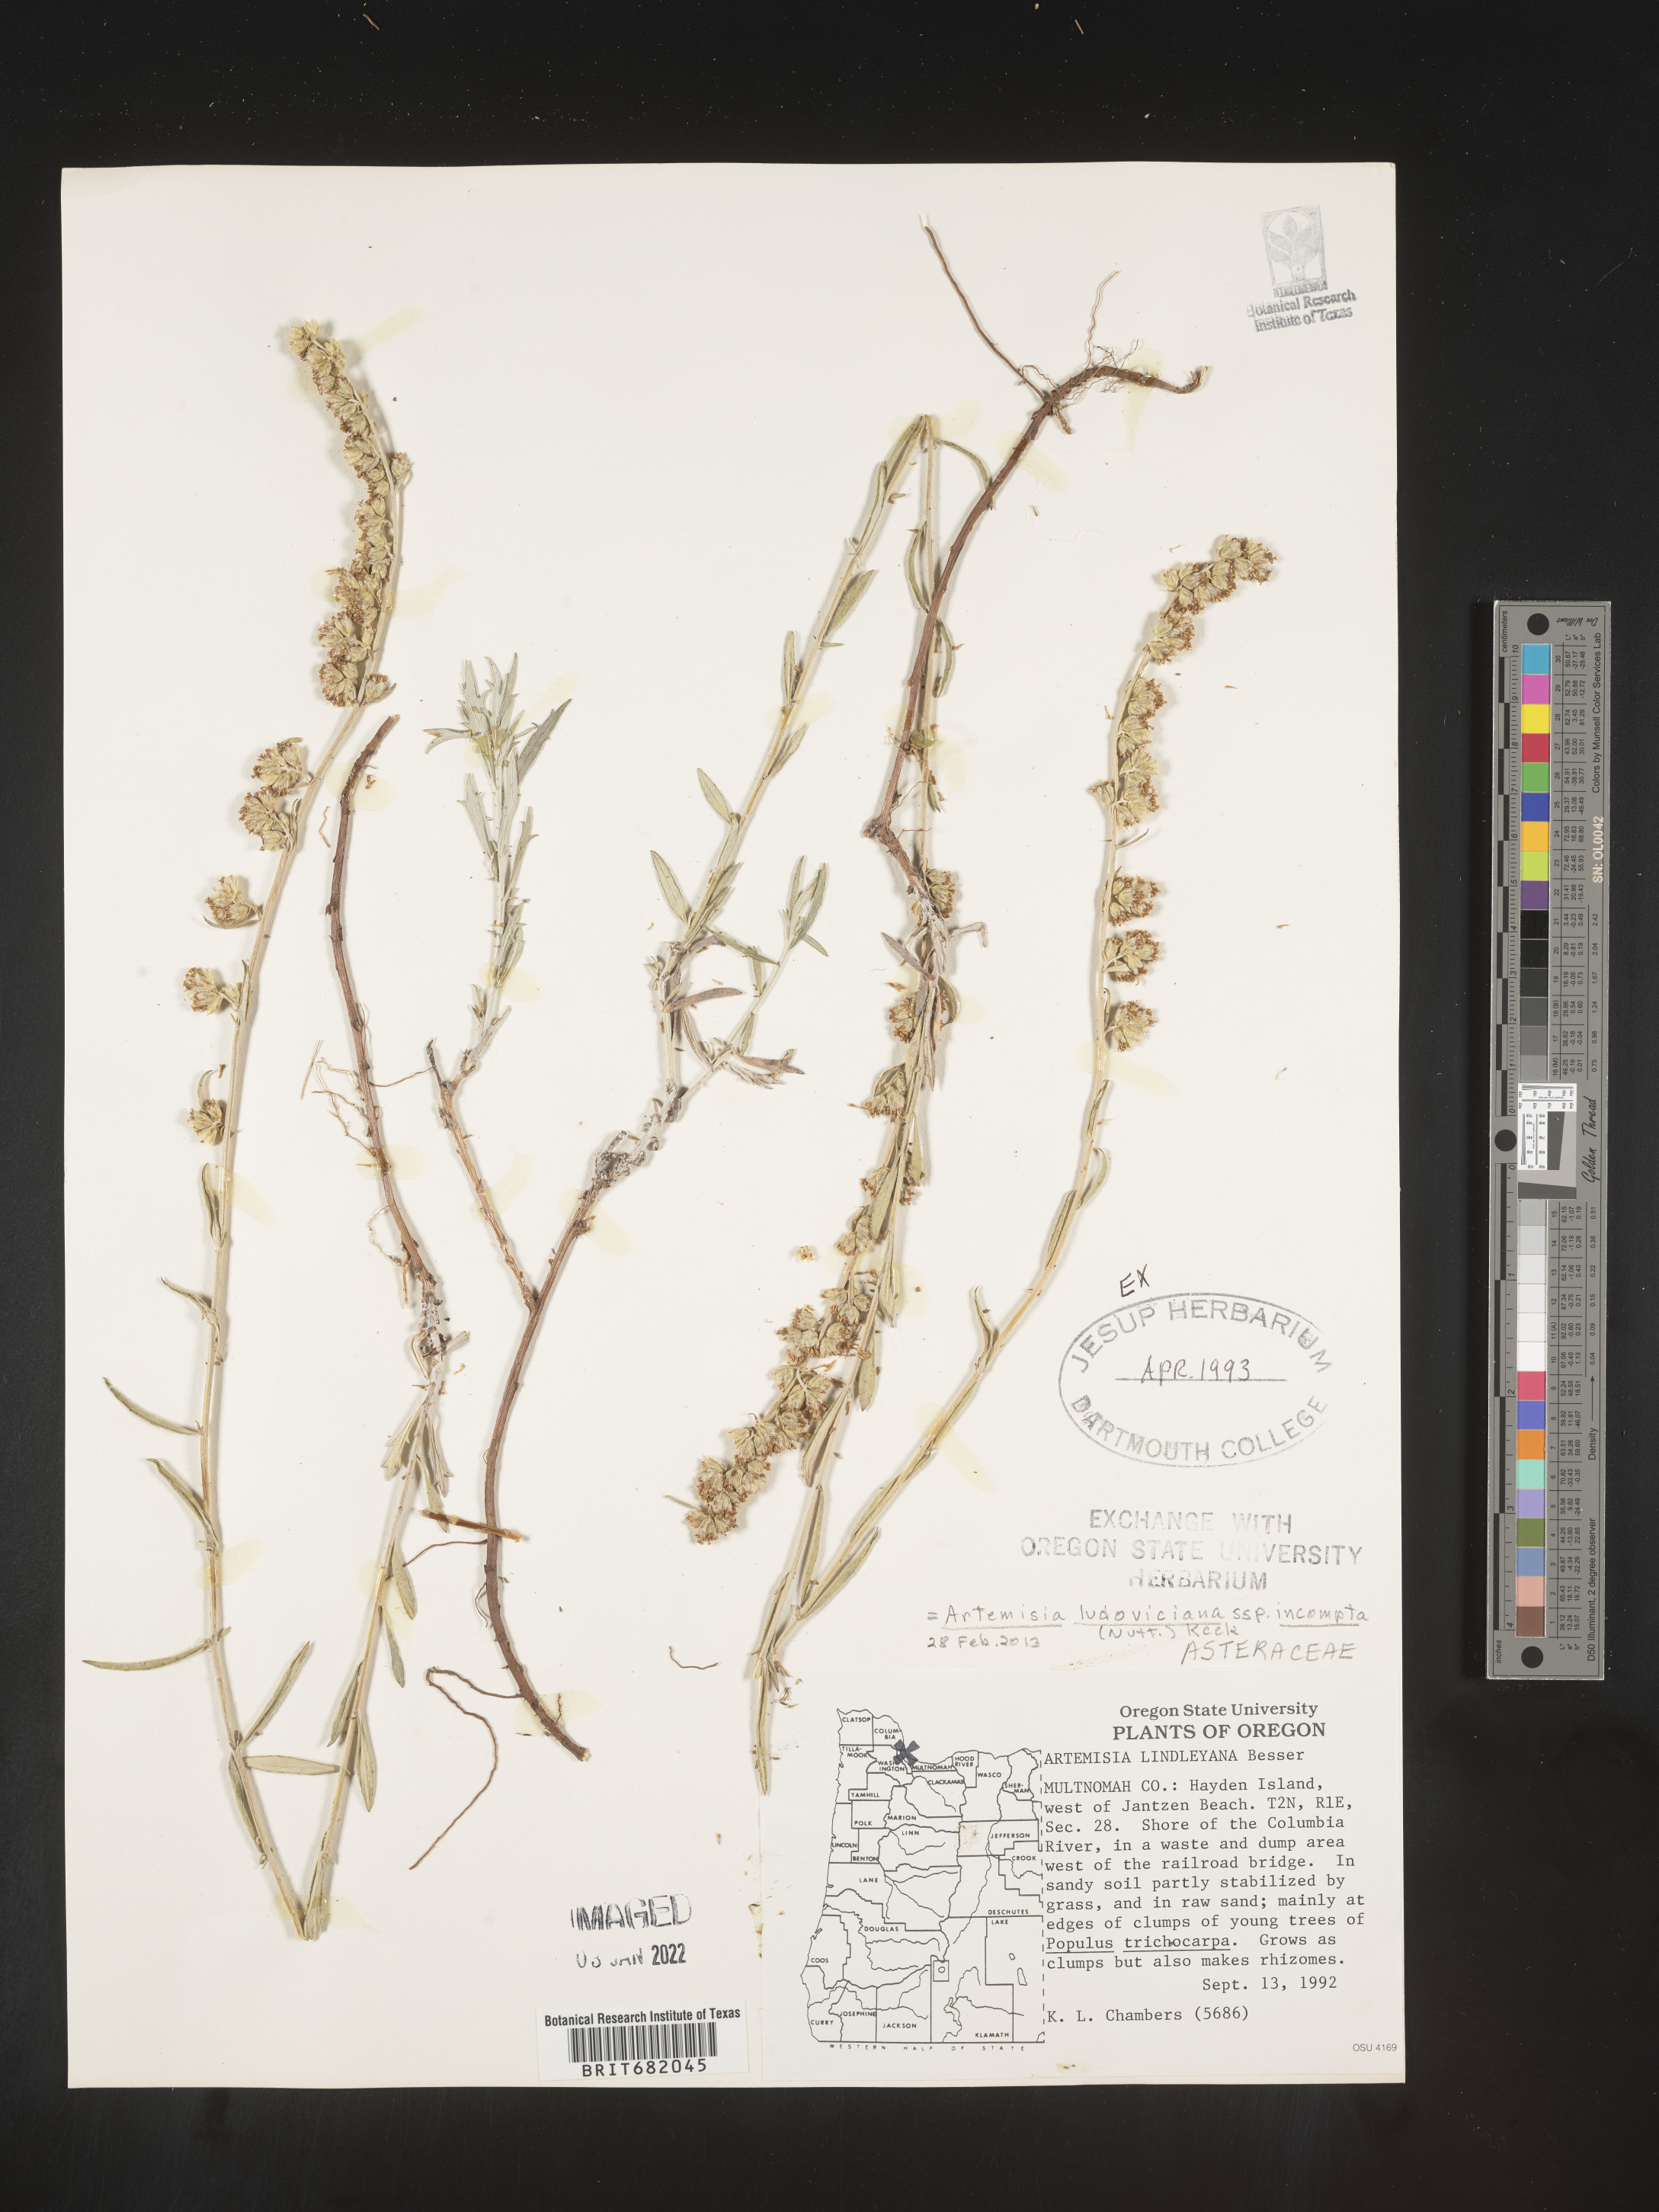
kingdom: Plantae
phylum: Tracheophyta
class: Magnoliopsida
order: Asterales
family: Asteraceae
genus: Artemisia
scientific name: Artemisia ludoviciana
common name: Western mugwort
